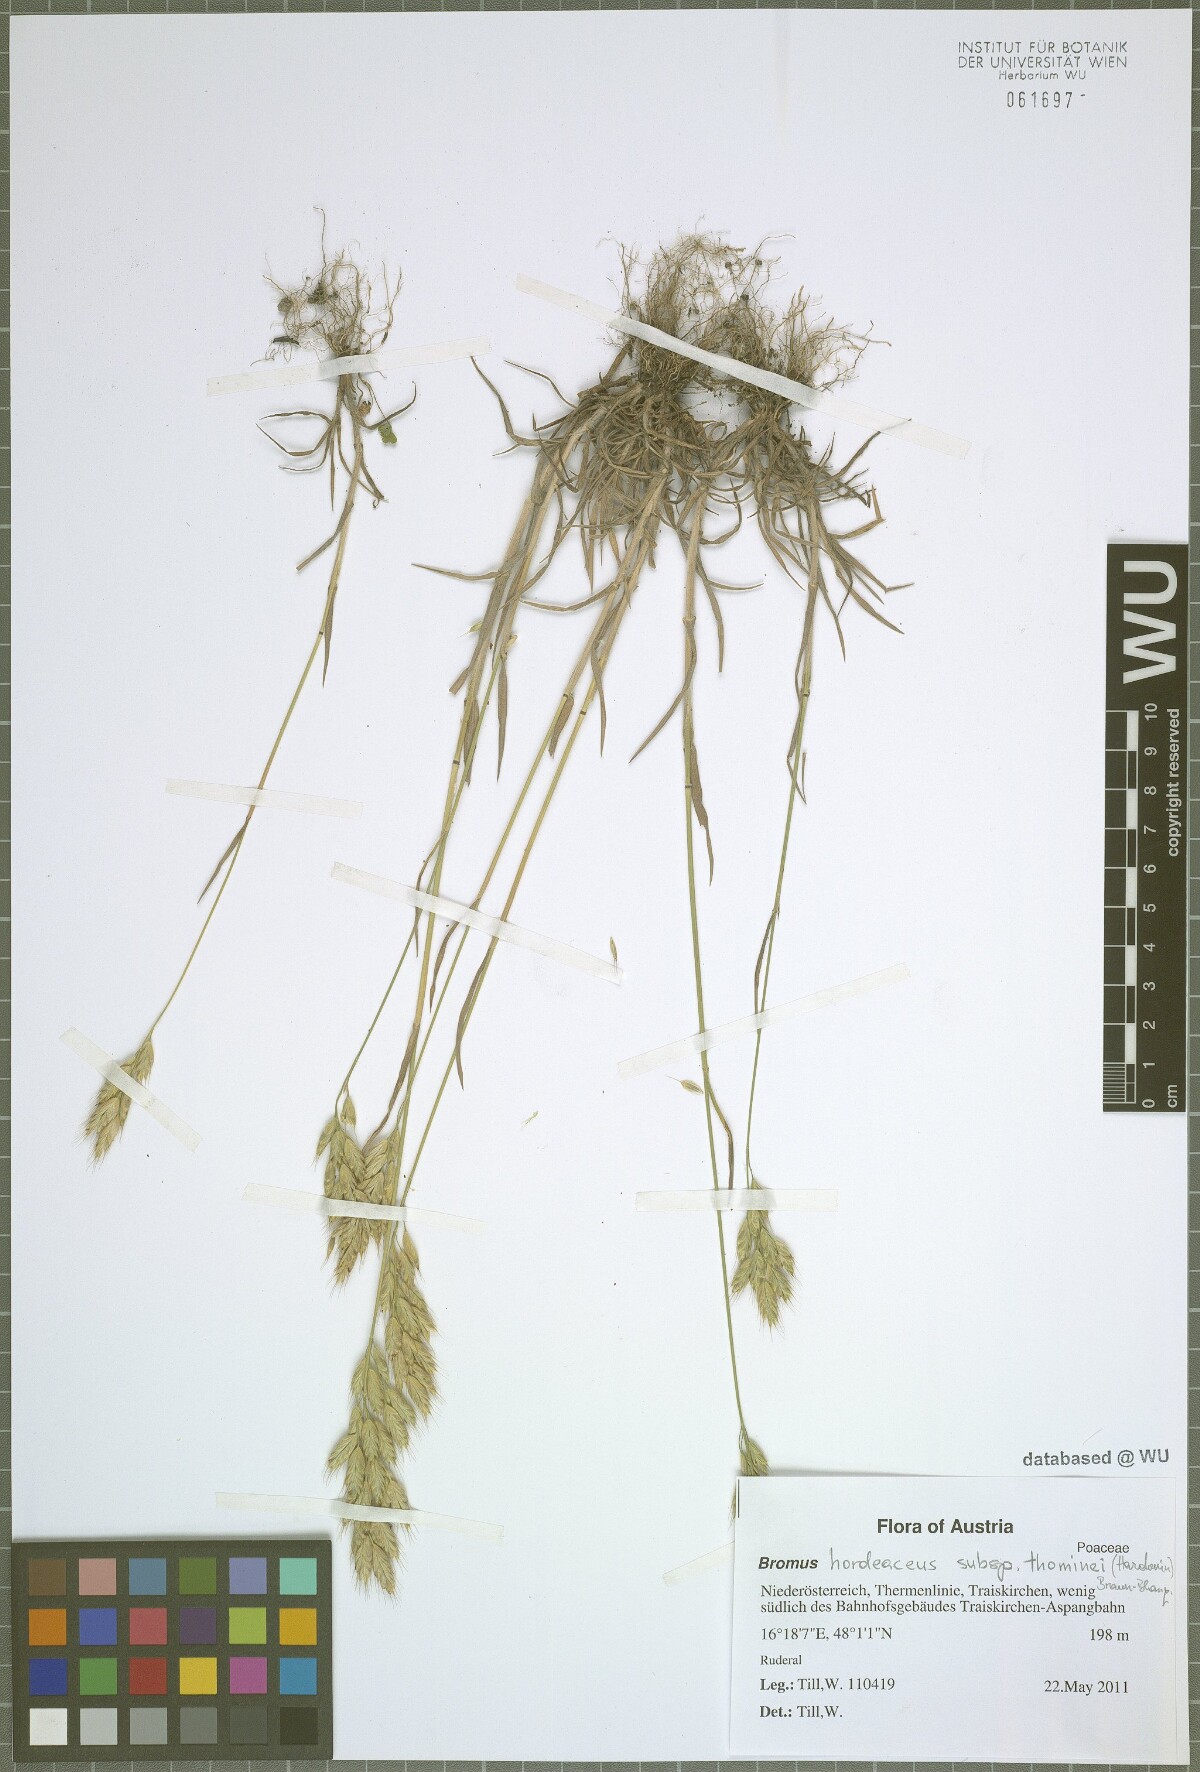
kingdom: Plantae
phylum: Tracheophyta
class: Liliopsida
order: Poales
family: Poaceae
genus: Bromus
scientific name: Bromus hordeaceus
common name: Soft brome
